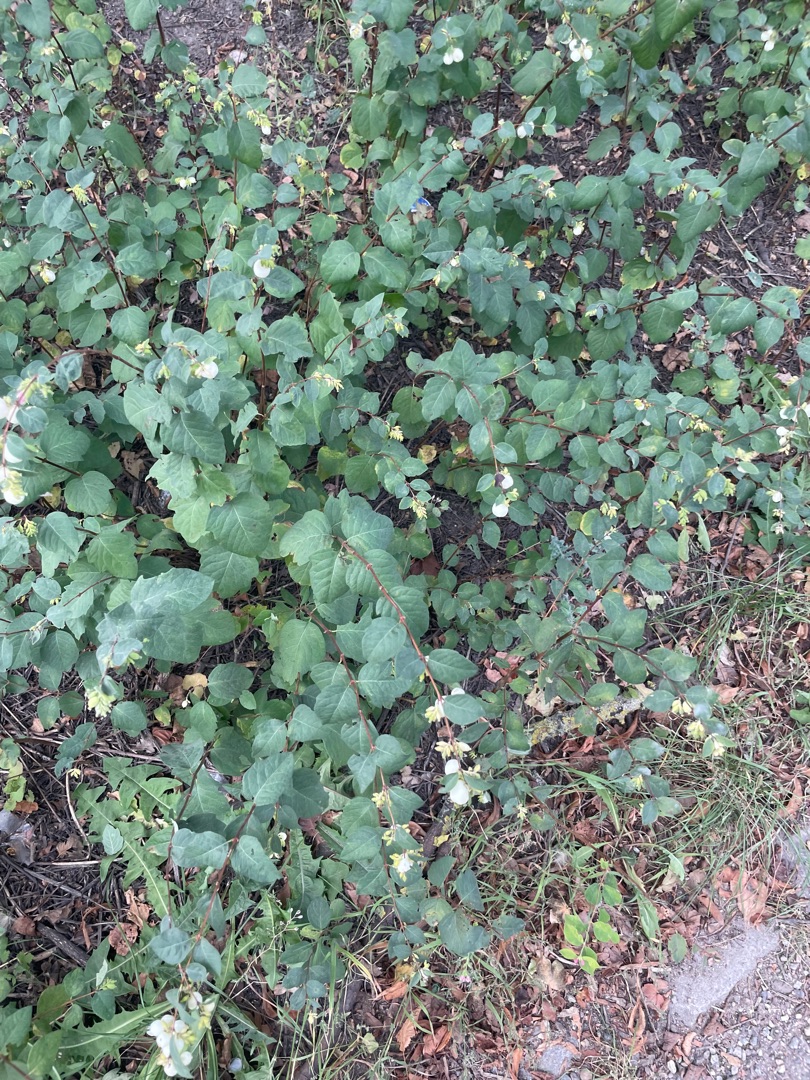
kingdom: Plantae
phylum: Tracheophyta
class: Magnoliopsida
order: Dipsacales
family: Caprifoliaceae
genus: Symphoricarpos
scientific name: Symphoricarpos albus
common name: Almindelig snebær
